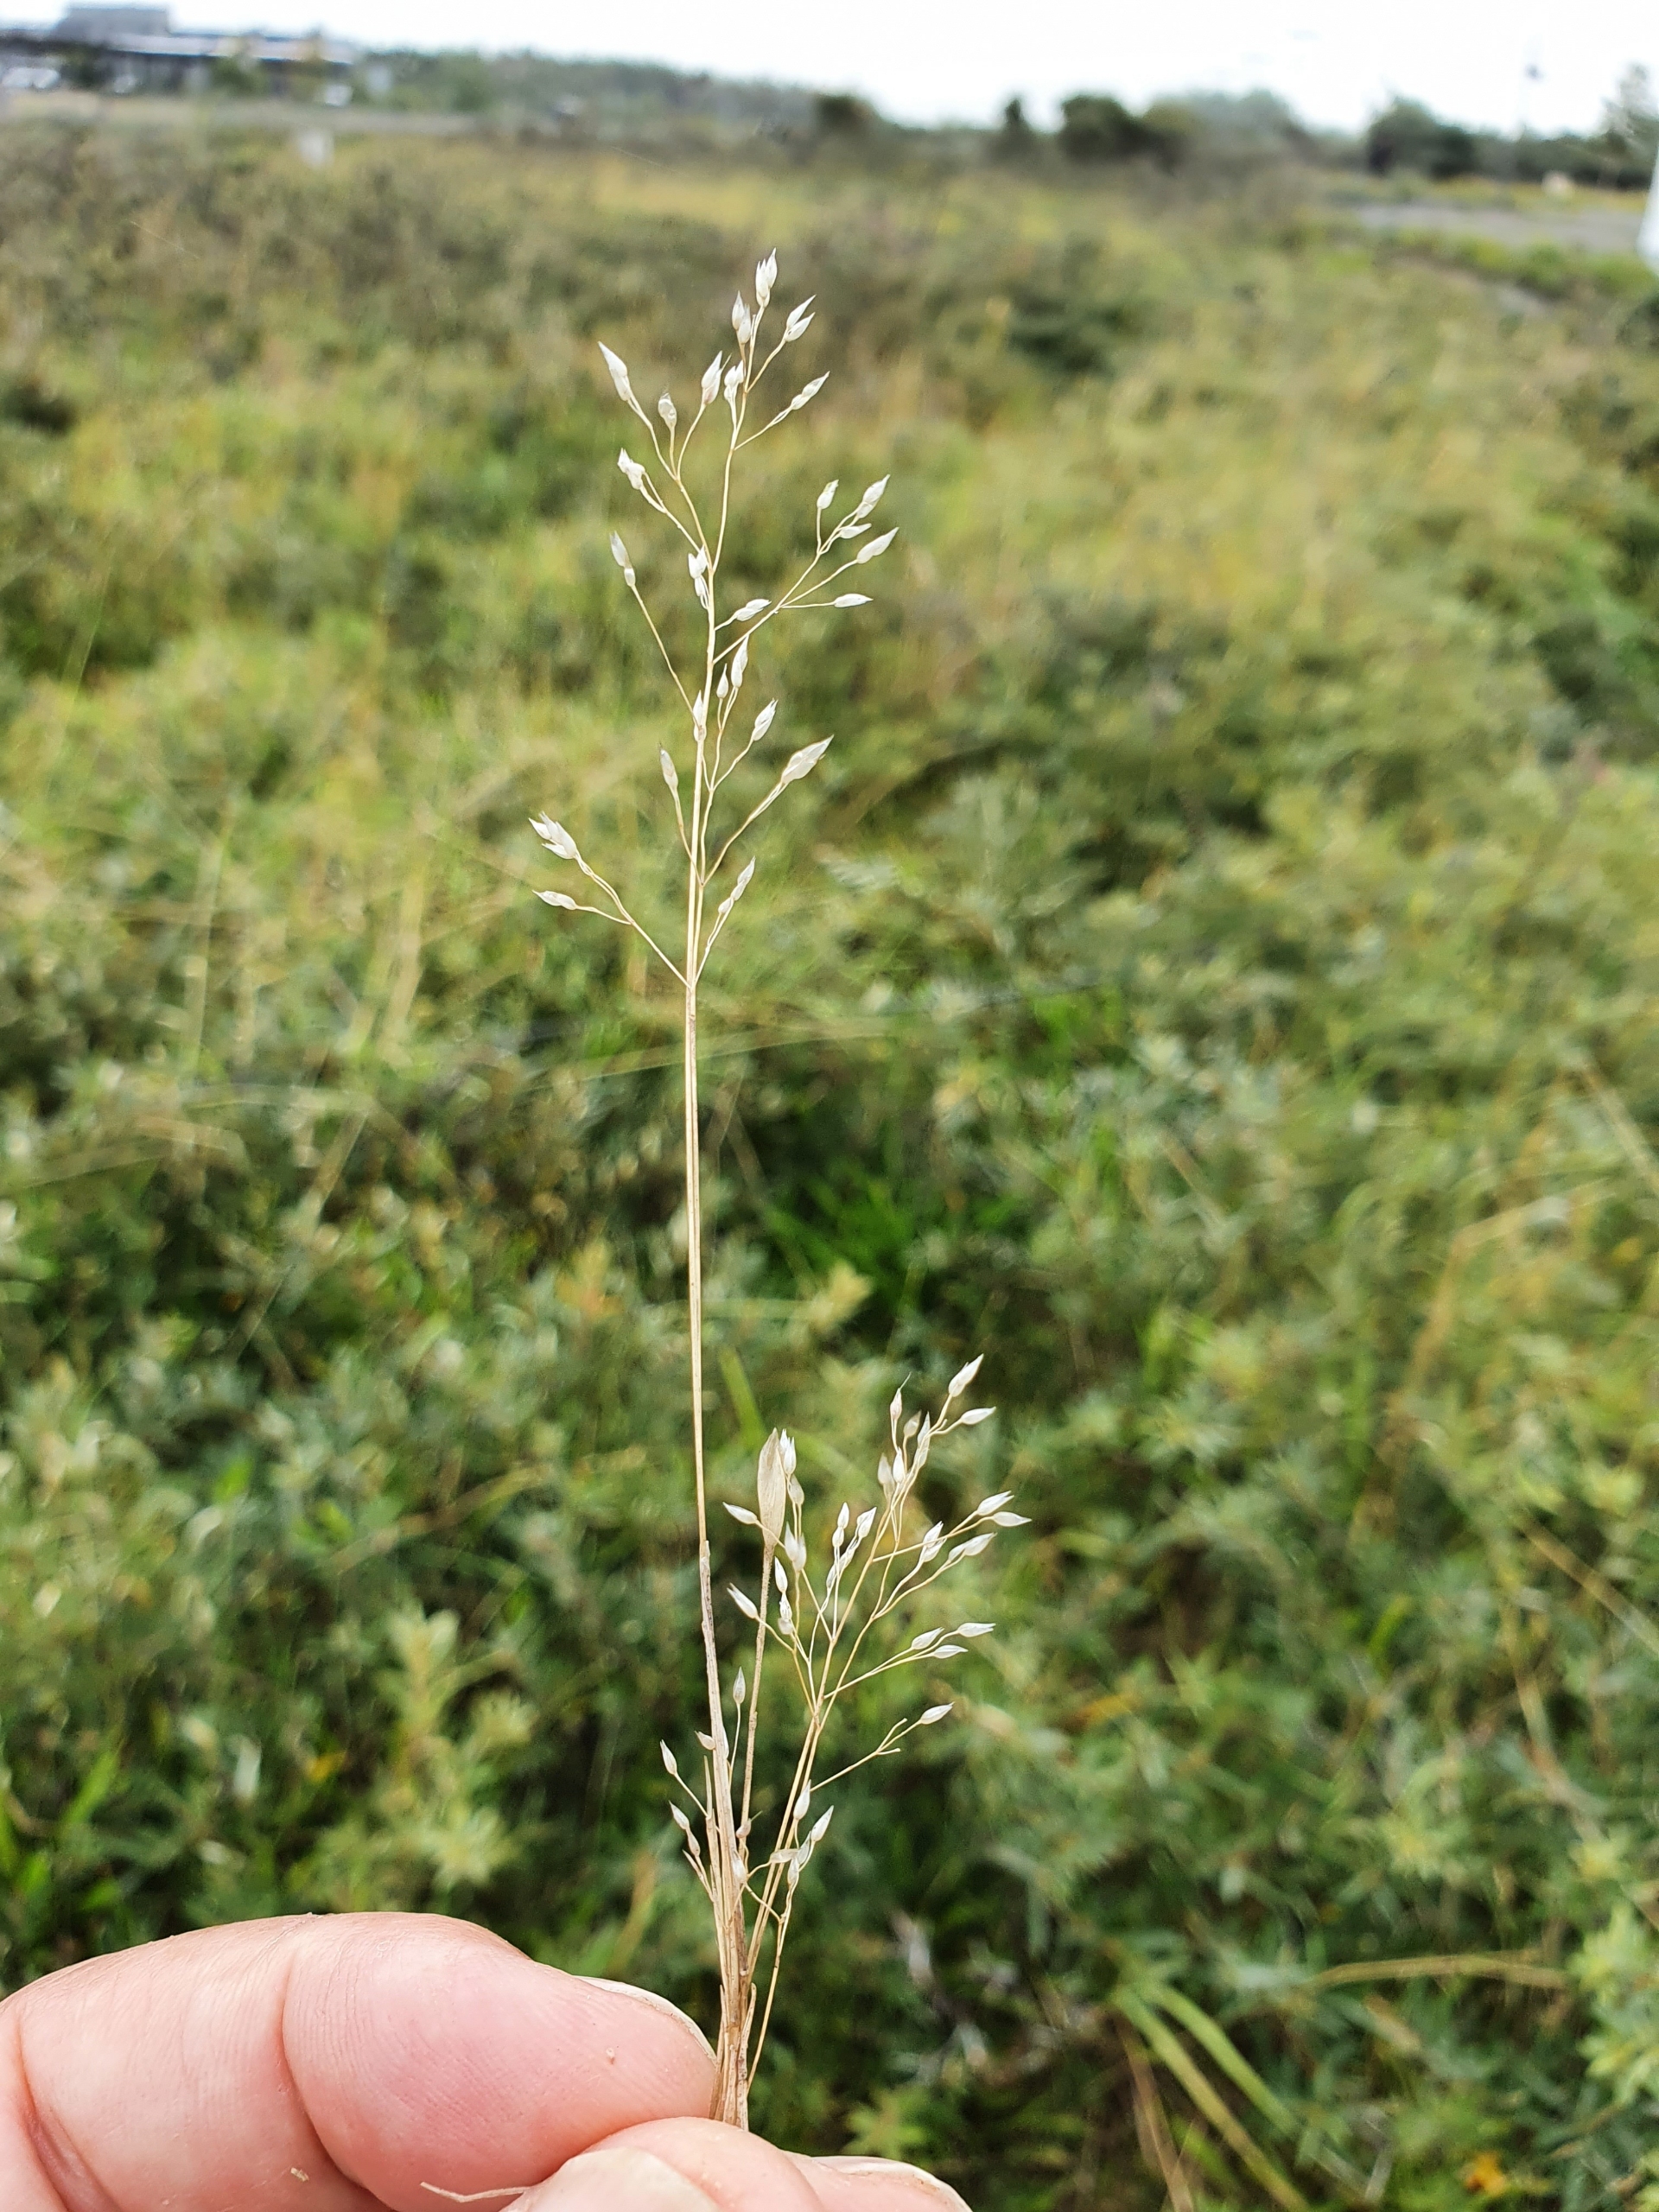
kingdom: Plantae
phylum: Tracheophyta
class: Liliopsida
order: Poales
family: Poaceae
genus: Aira
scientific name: Aira caryophyllea
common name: Udspærret dværgbunke
